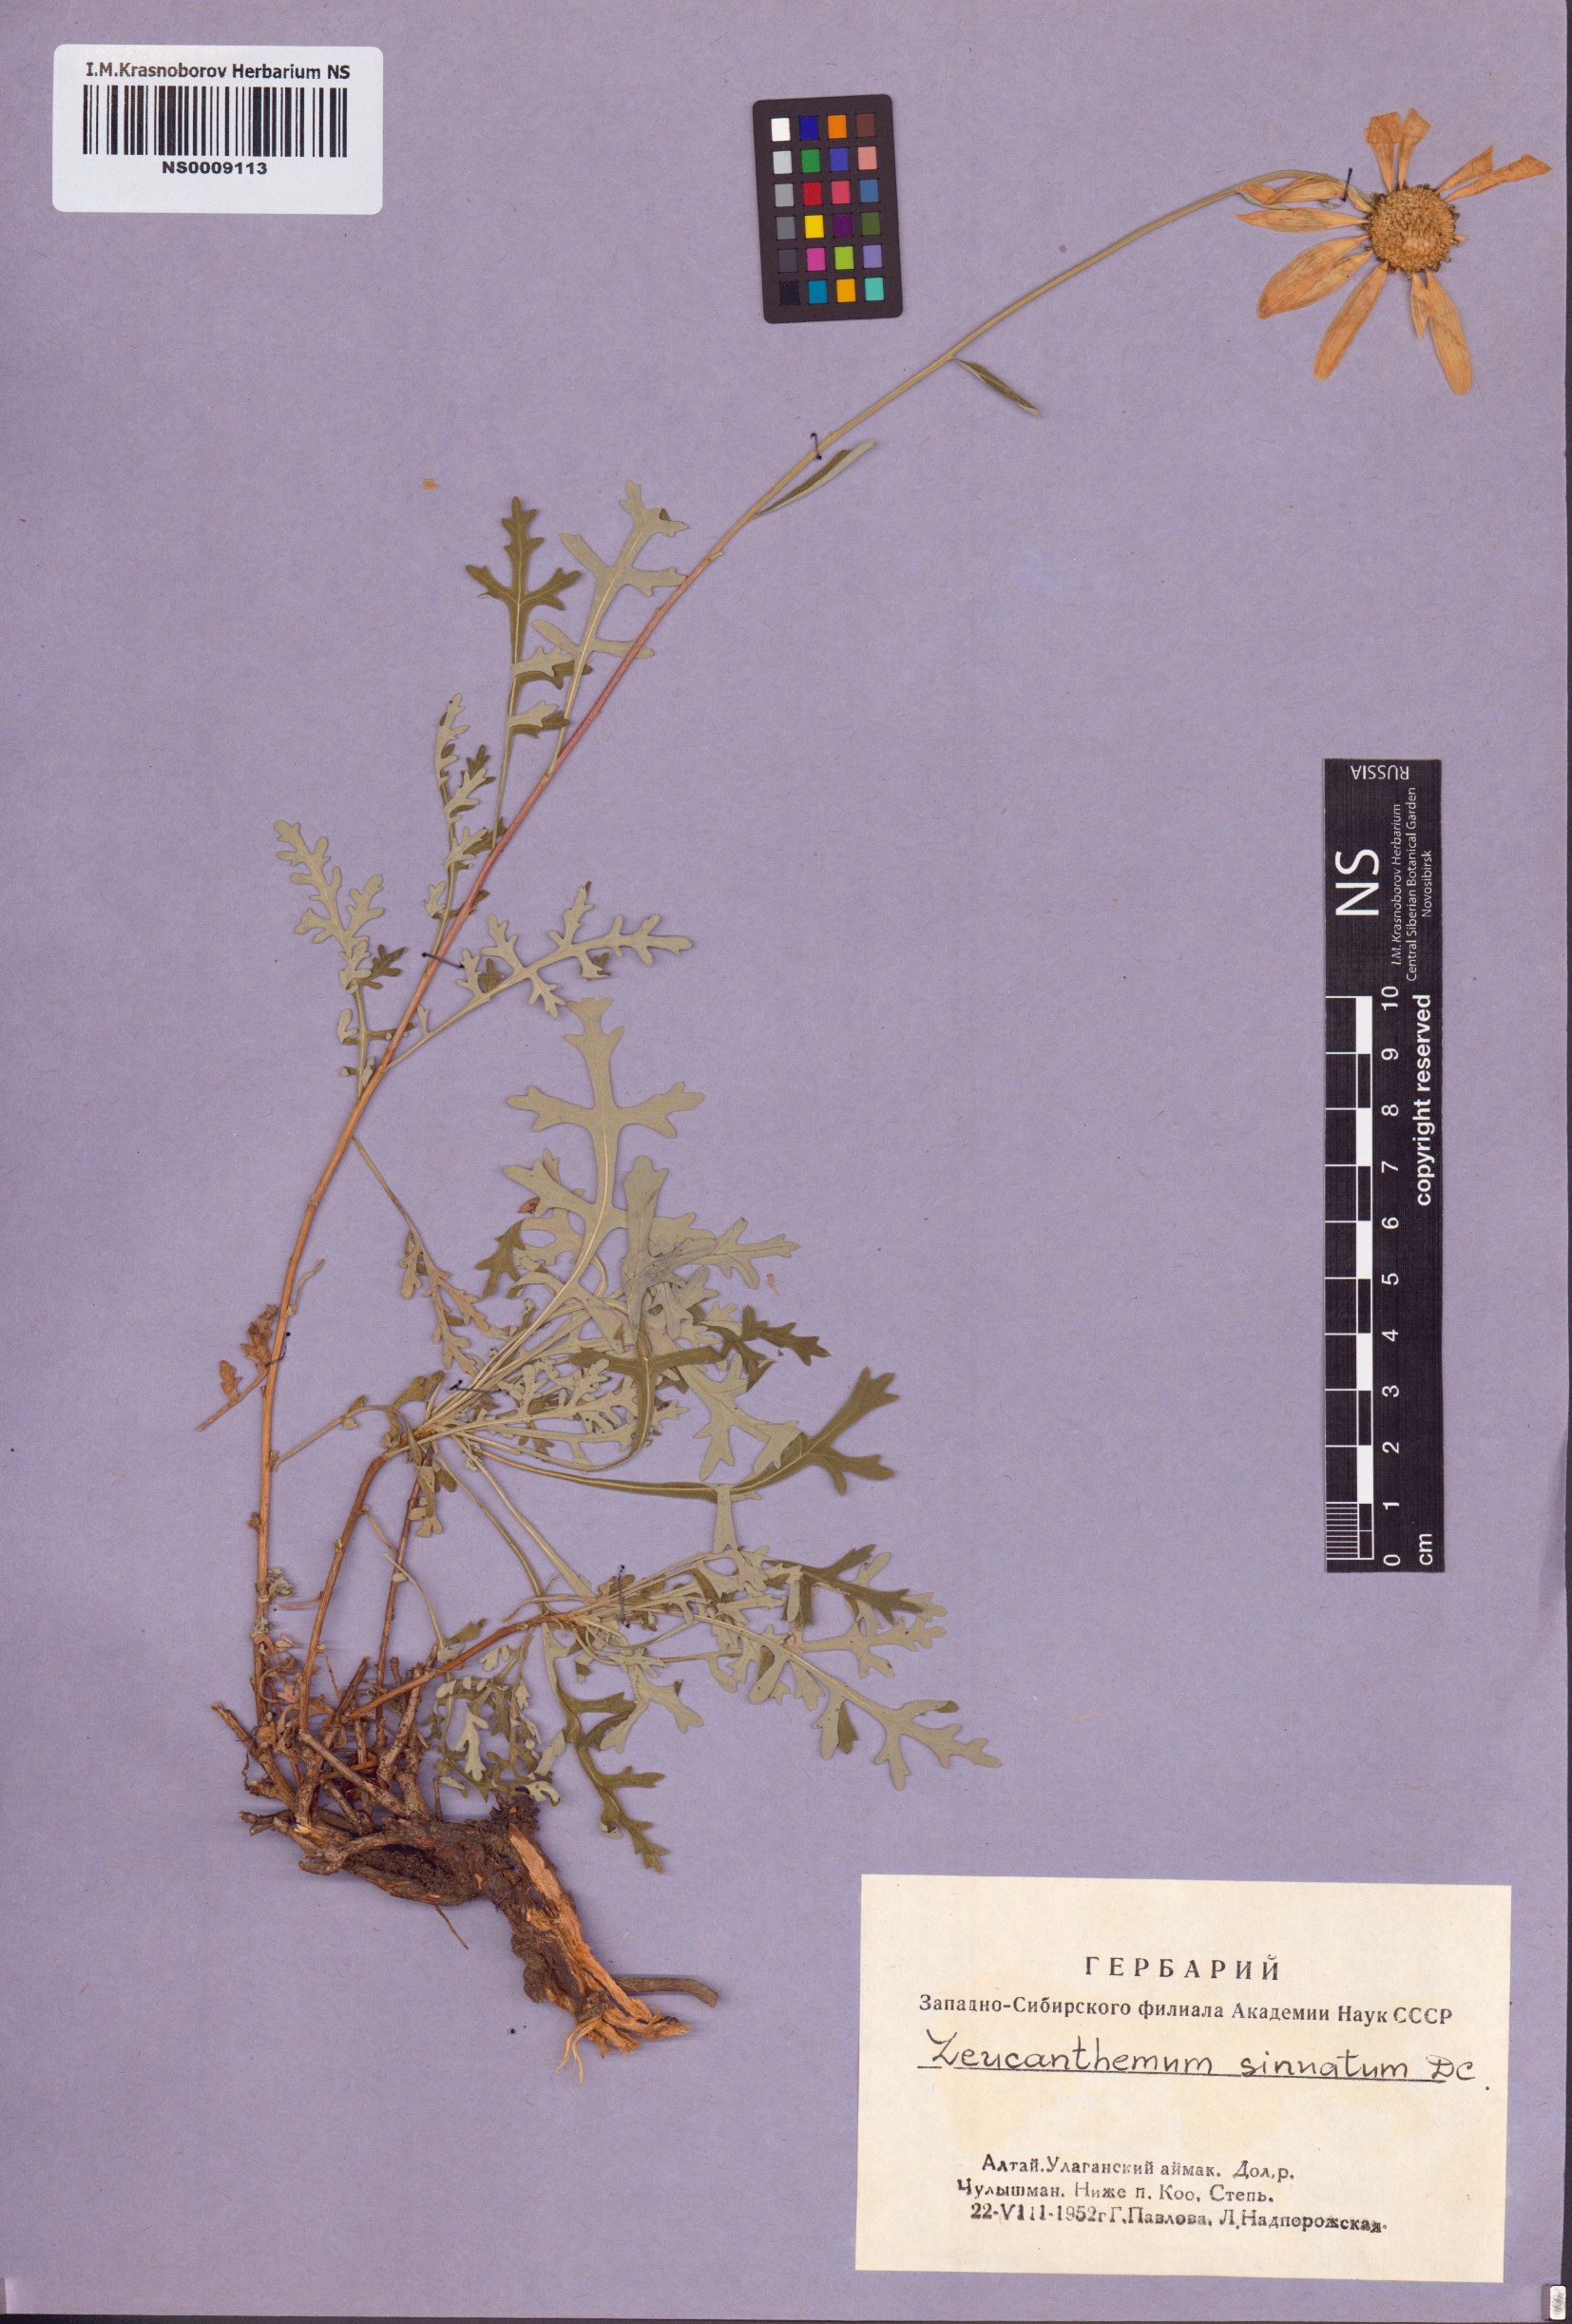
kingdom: Plantae
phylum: Tracheophyta
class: Magnoliopsida
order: Asterales
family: Asteraceae
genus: Chrysanthemum
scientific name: Chrysanthemum sinuatum
